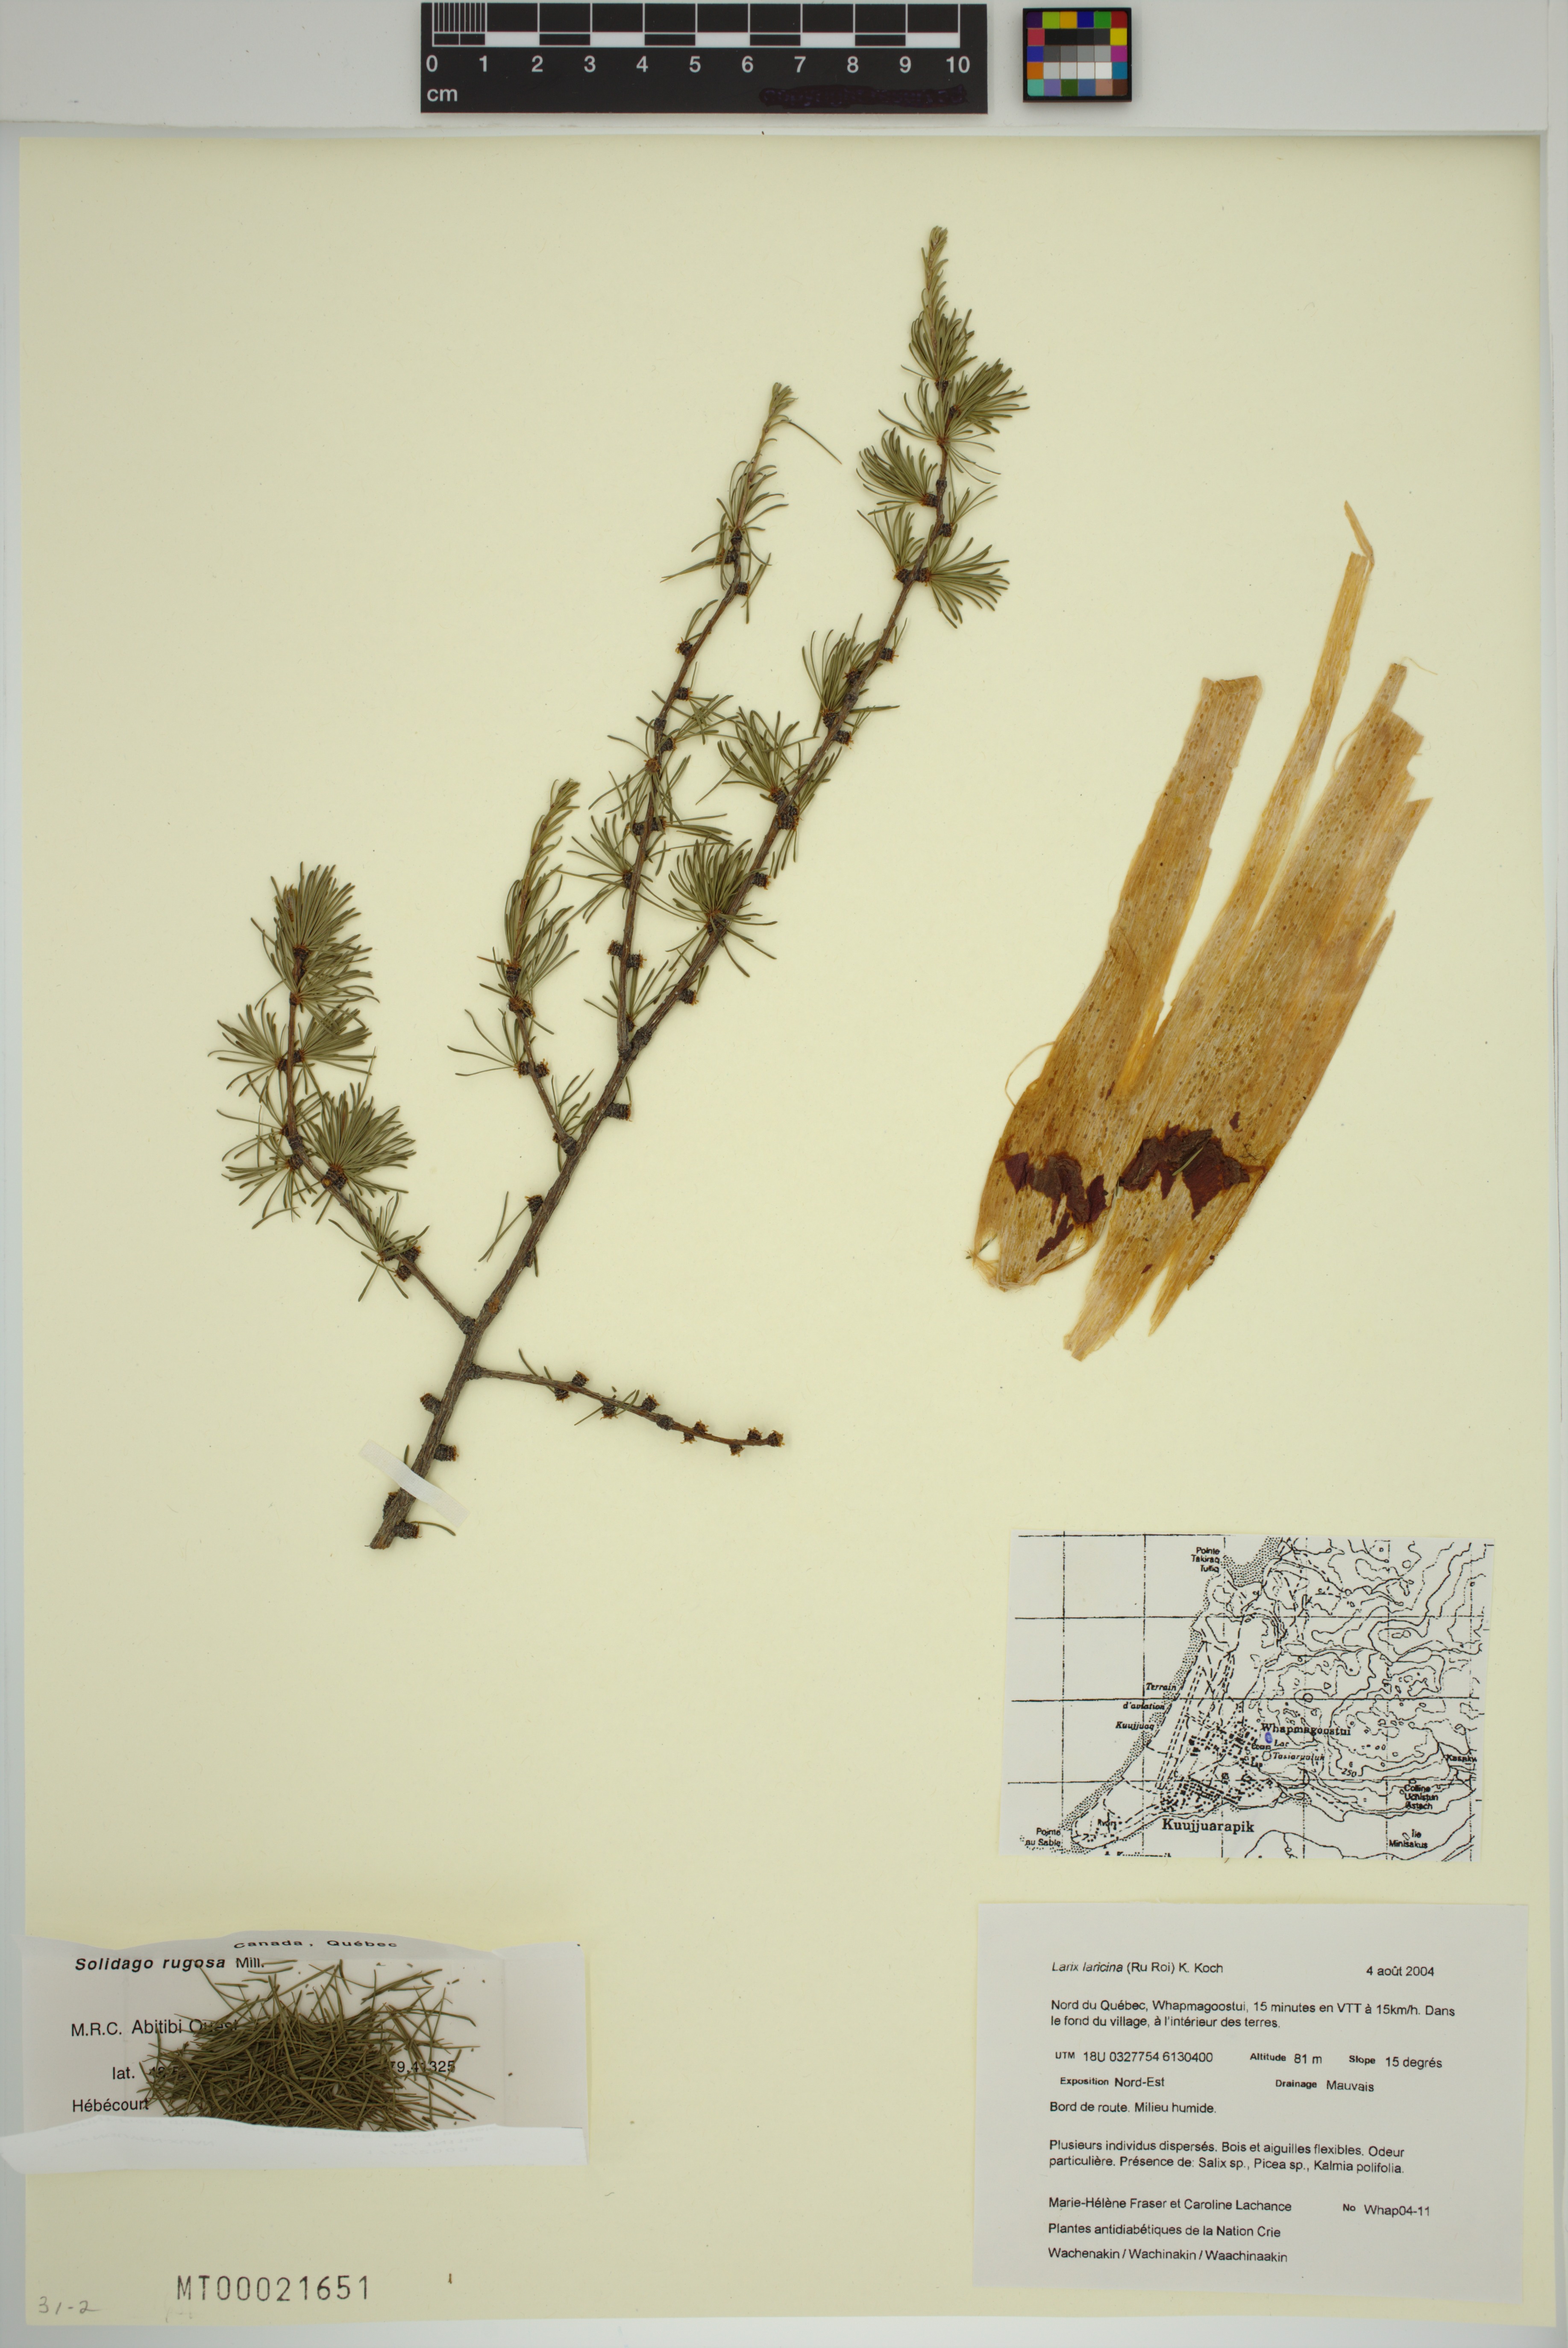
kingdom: Plantae
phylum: Tracheophyta
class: Pinopsida
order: Pinales
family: Pinaceae
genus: Larix
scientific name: Larix laricina
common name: American larch
